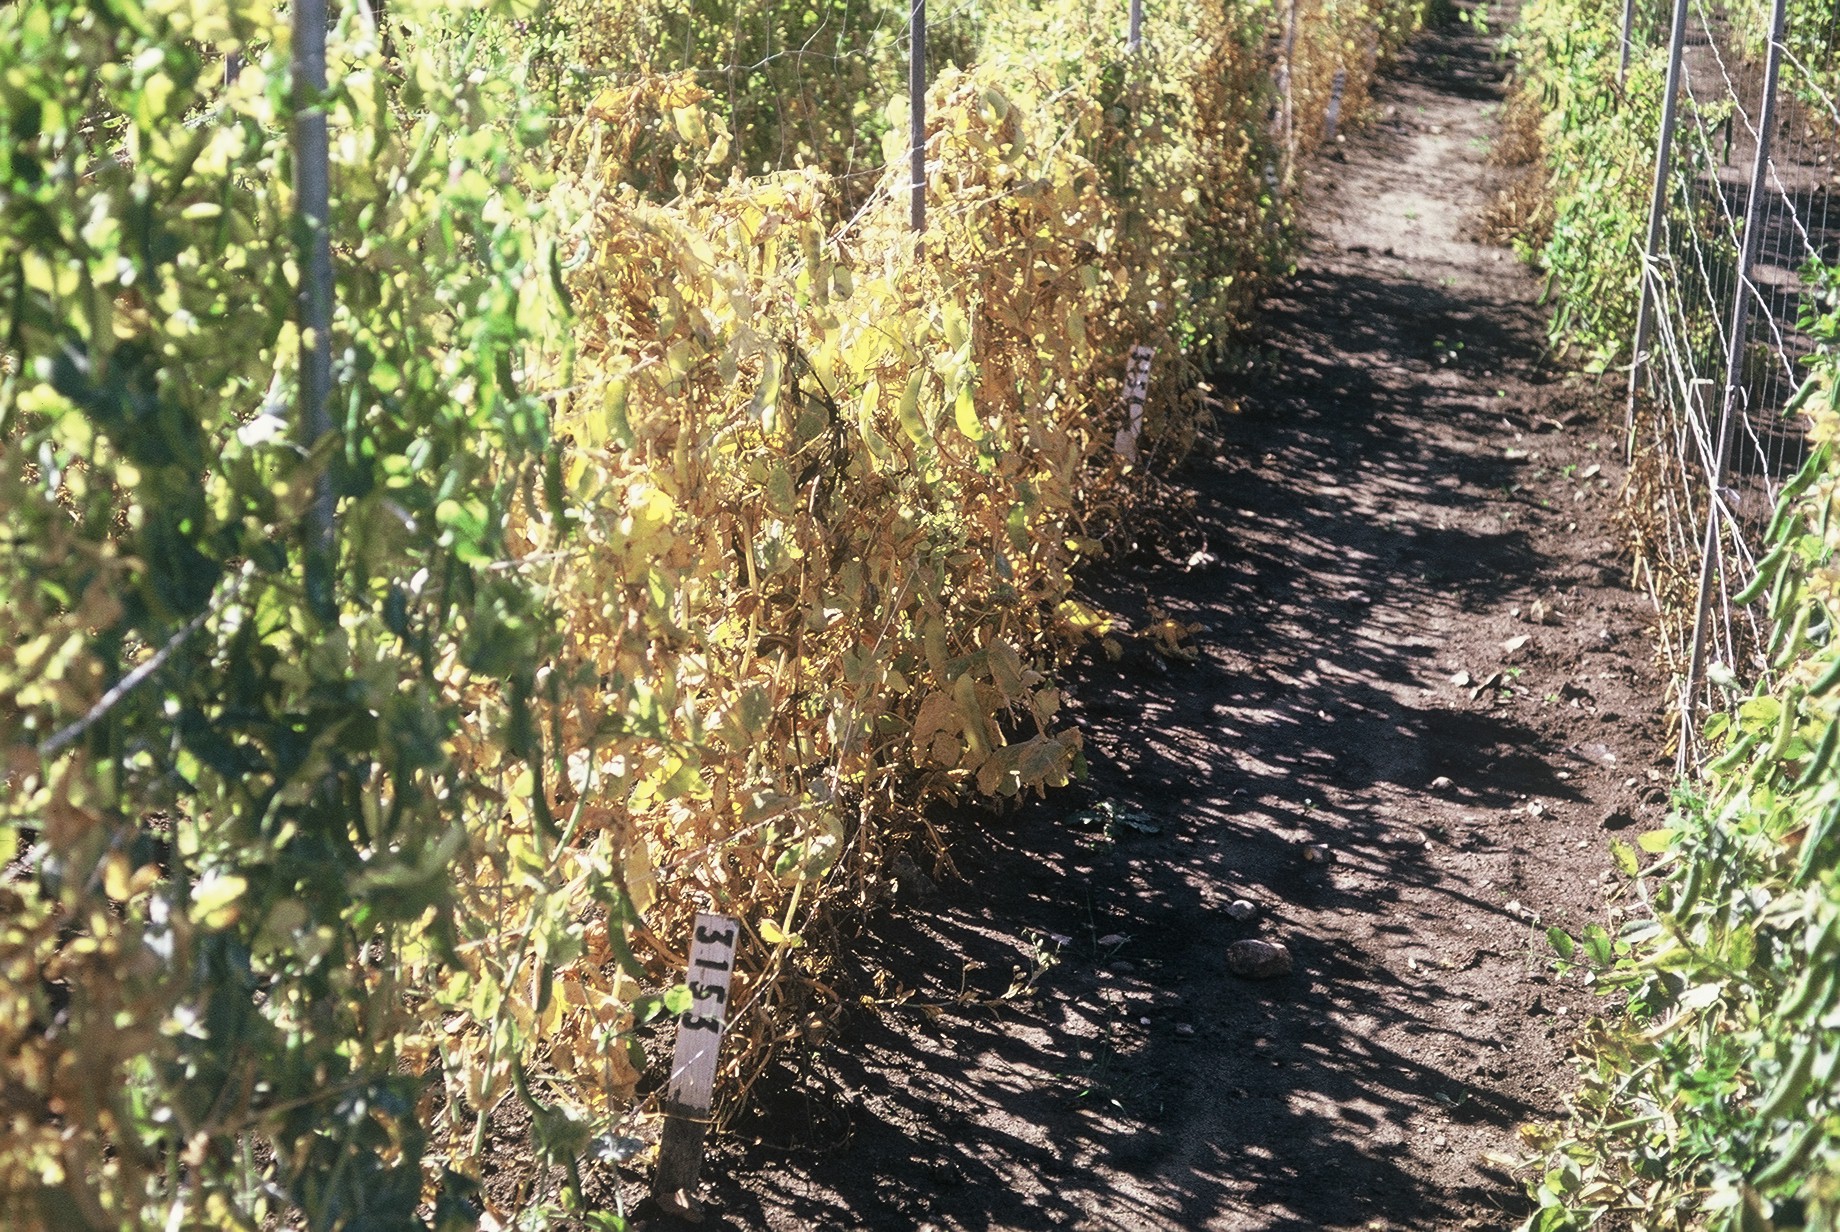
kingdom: Plantae
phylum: Tracheophyta
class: Magnoliopsida
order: Fabales
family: Fabaceae
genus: Lathyrus
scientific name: Lathyrus oleraceus
